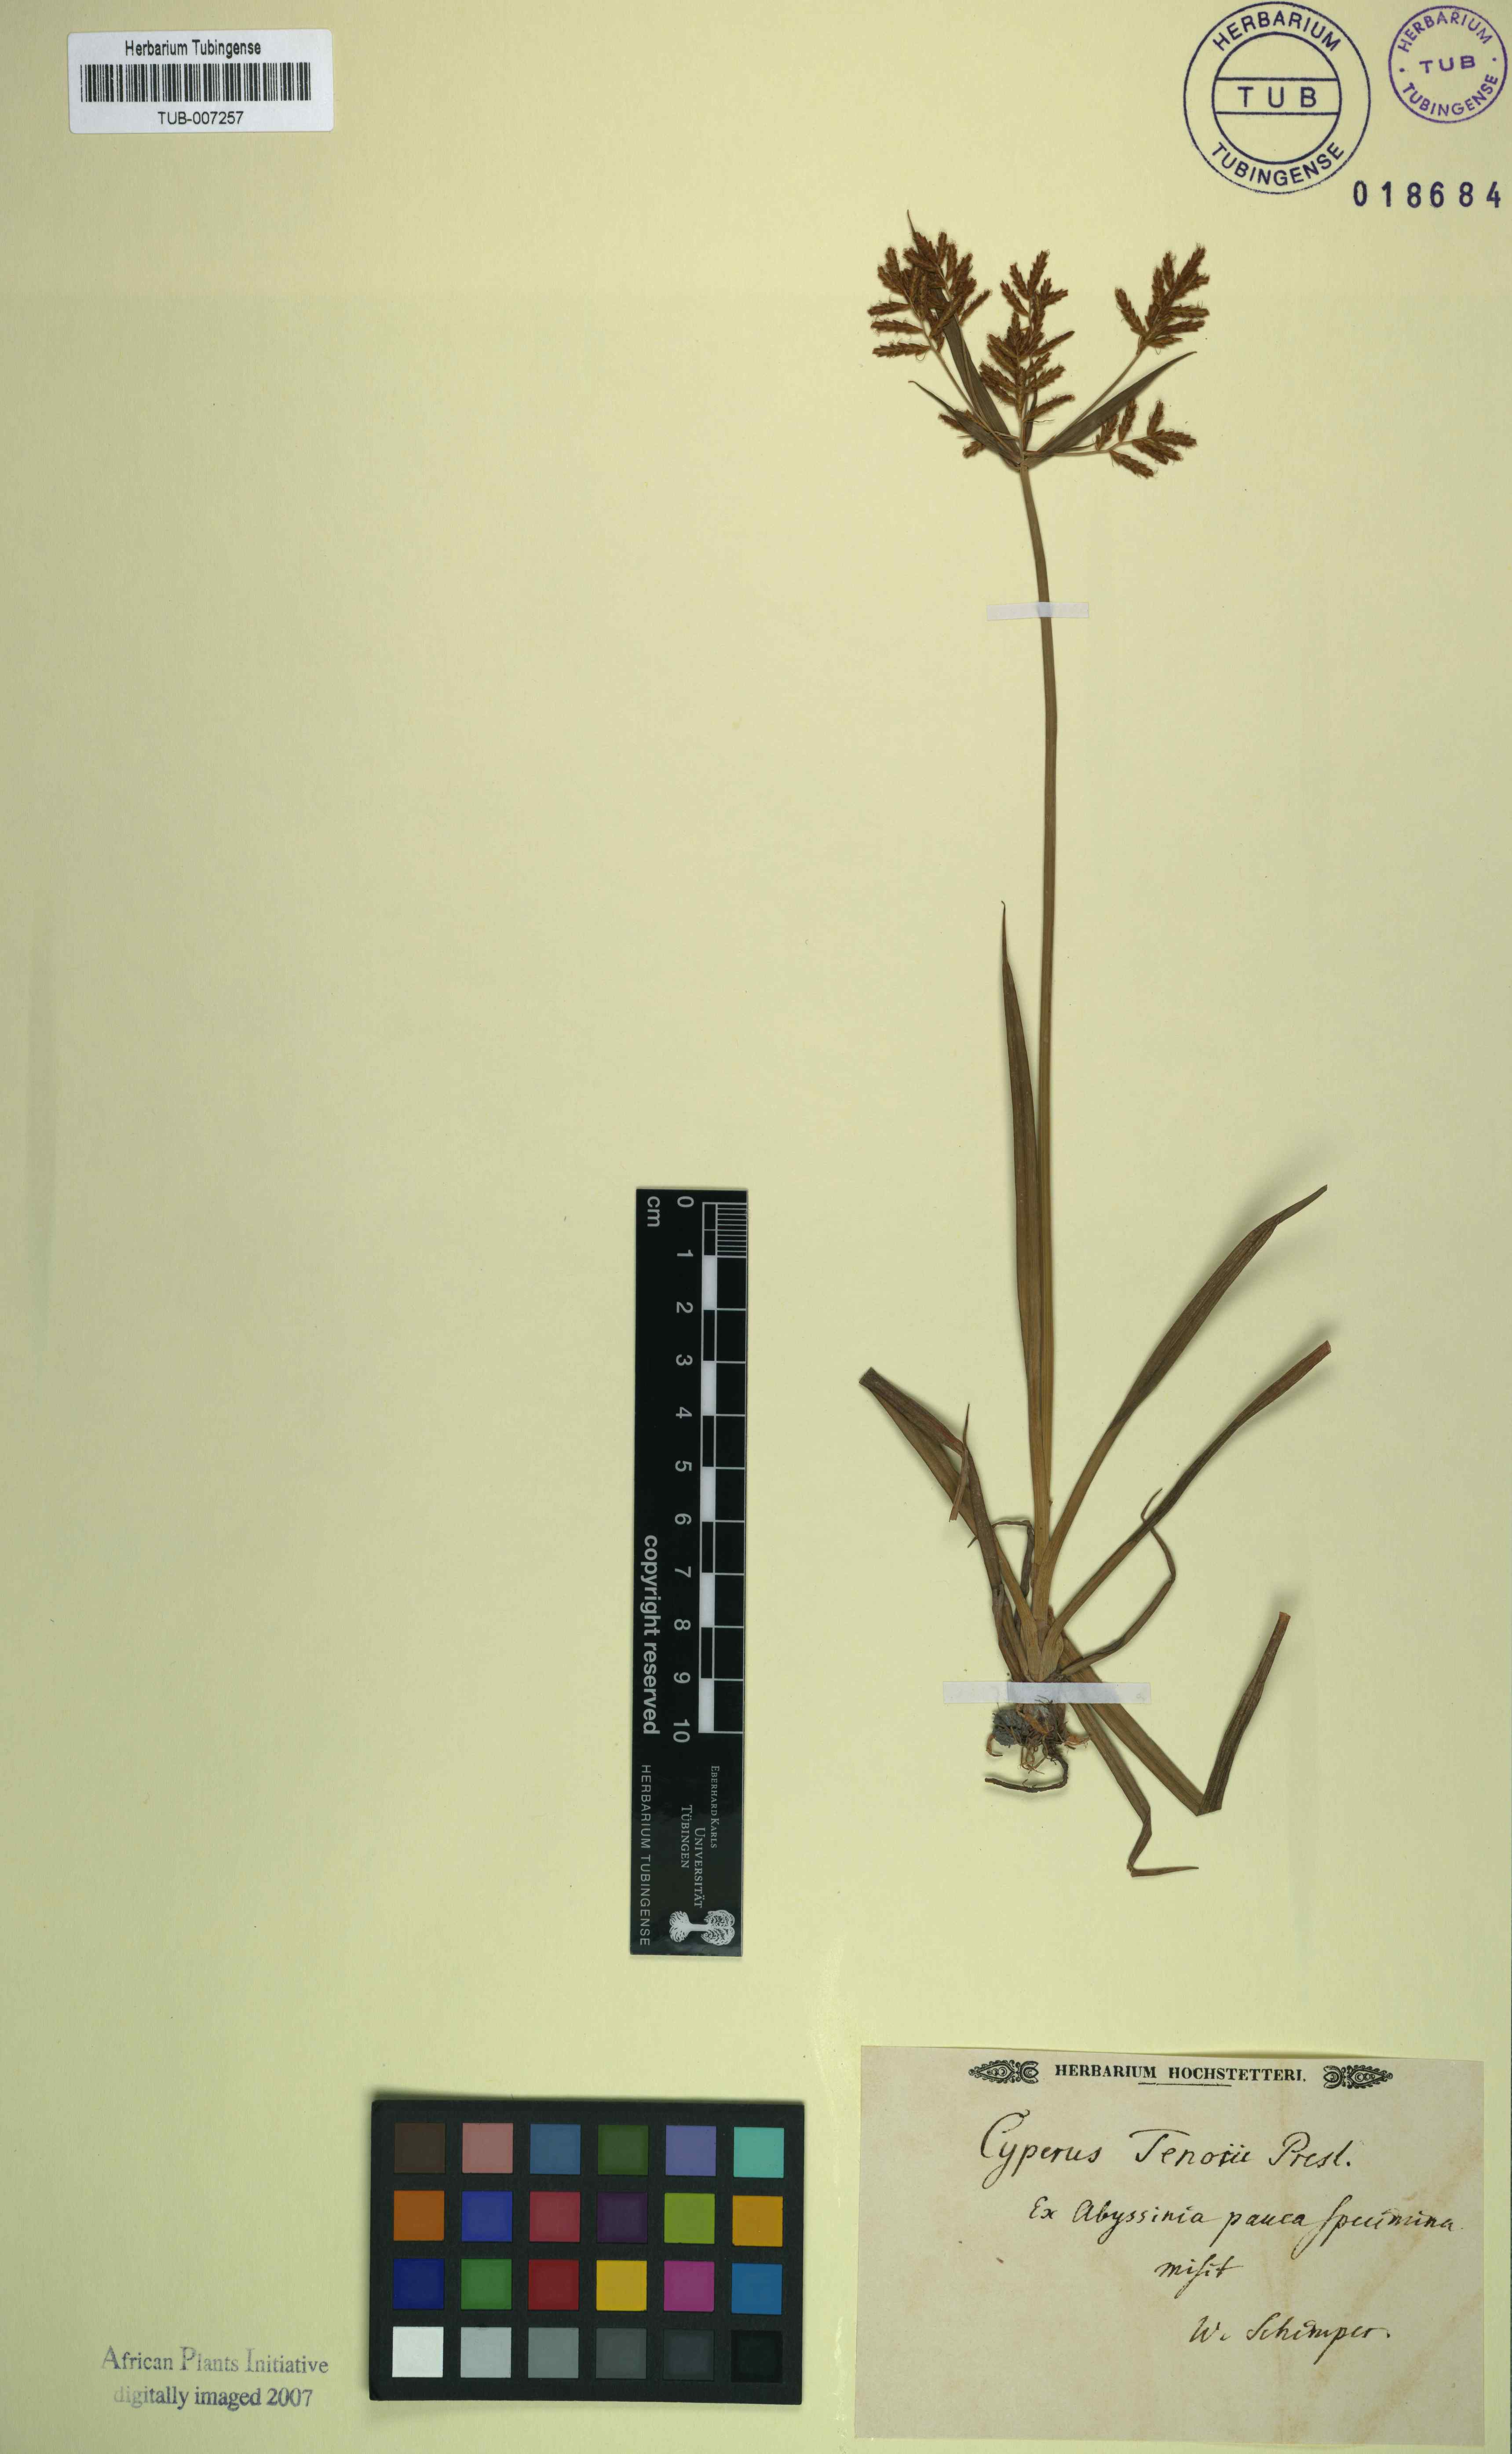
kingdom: Plantae
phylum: Tracheophyta
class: Liliopsida
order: Poales
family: Cyperaceae
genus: Cyperus
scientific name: Cyperus esculentus
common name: Yellow nutsedge
